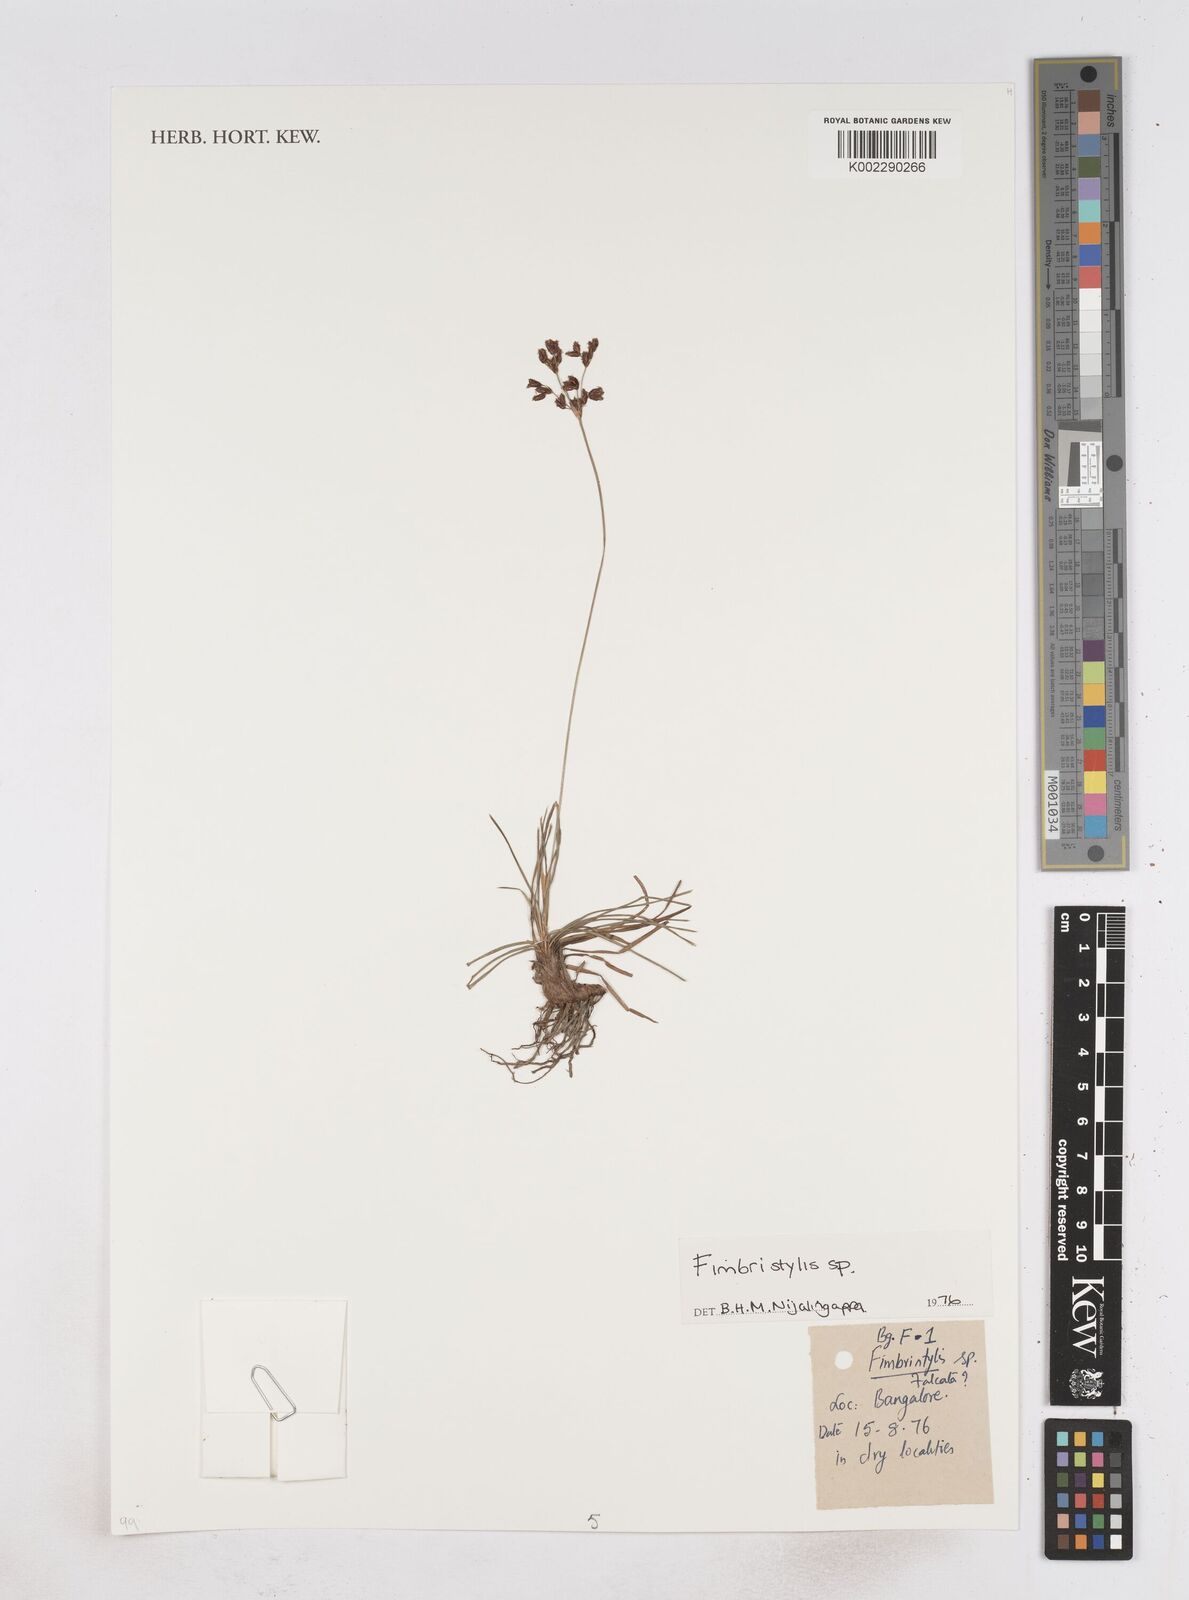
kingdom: Plantae
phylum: Tracheophyta
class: Liliopsida
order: Poales
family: Cyperaceae
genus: Fimbristylis
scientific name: Fimbristylis
